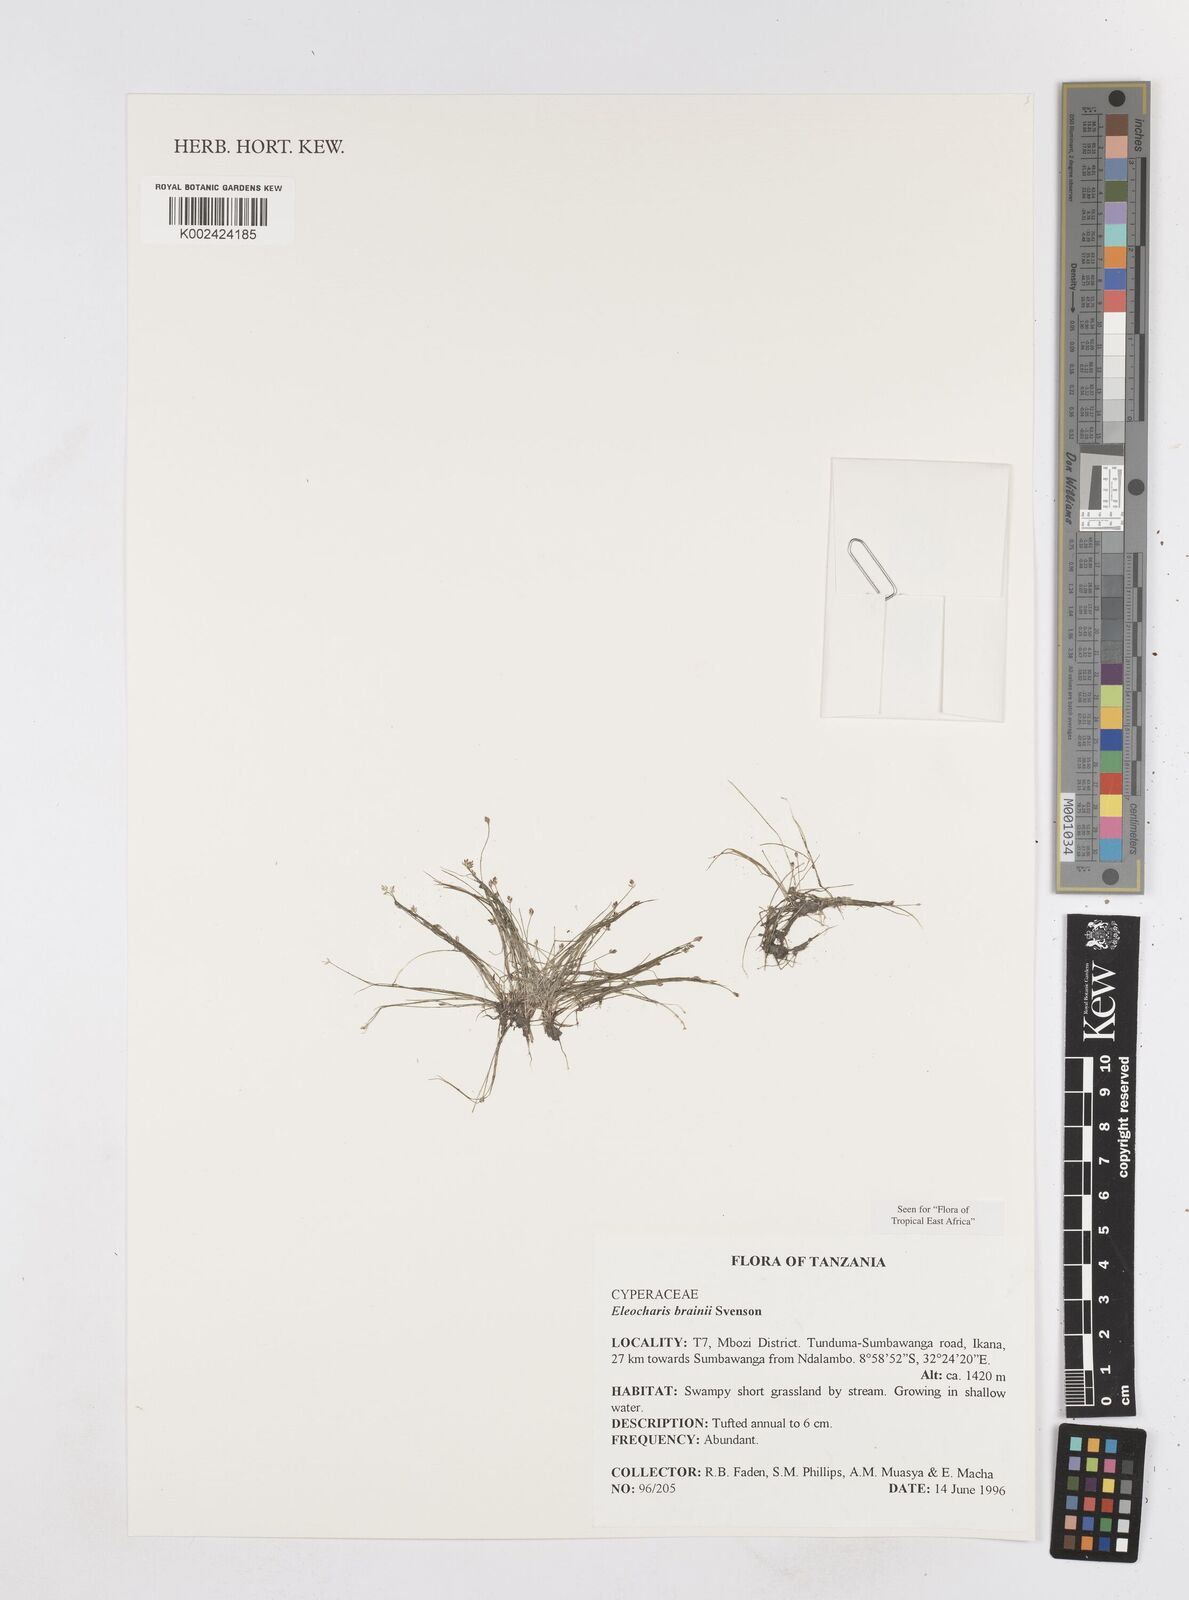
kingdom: Plantae
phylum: Tracheophyta
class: Liliopsida
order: Poales
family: Cyperaceae
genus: Eleocharis
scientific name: Eleocharis brainii
